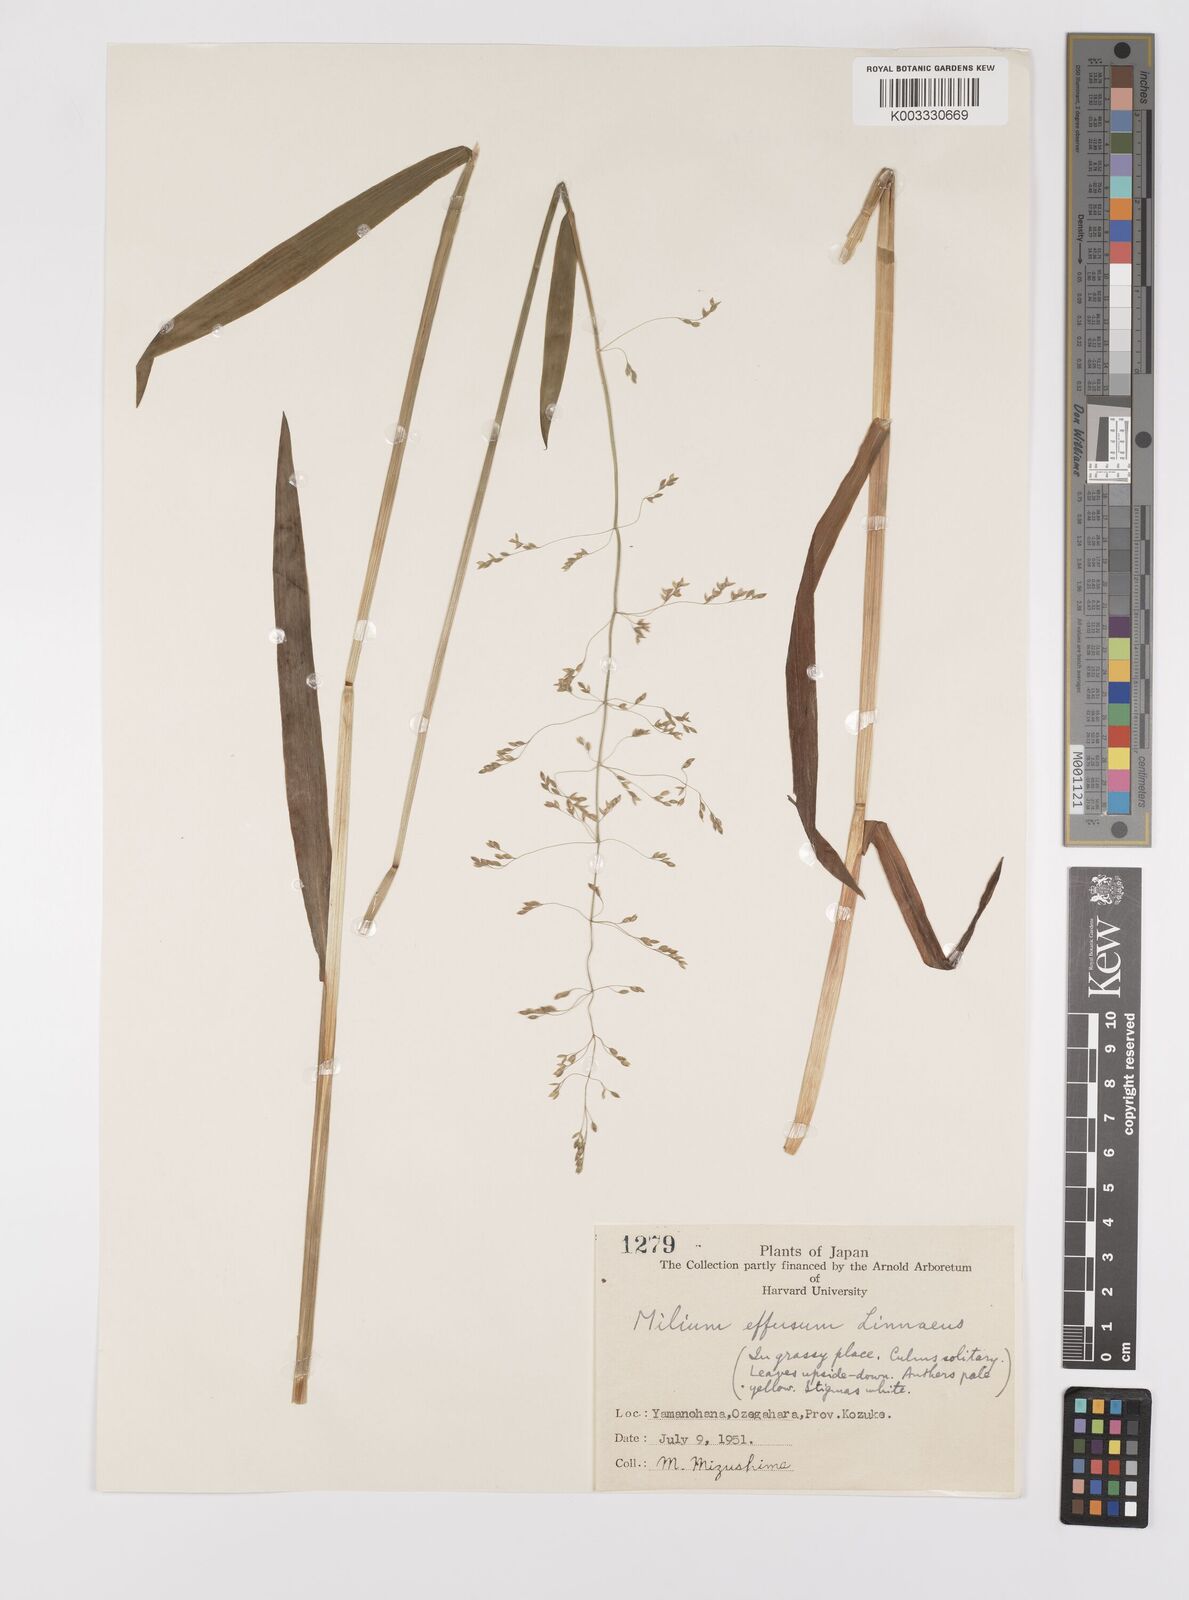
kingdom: Plantae
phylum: Tracheophyta
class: Liliopsida
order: Poales
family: Poaceae
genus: Milium
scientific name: Milium effusum
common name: Wood millet
